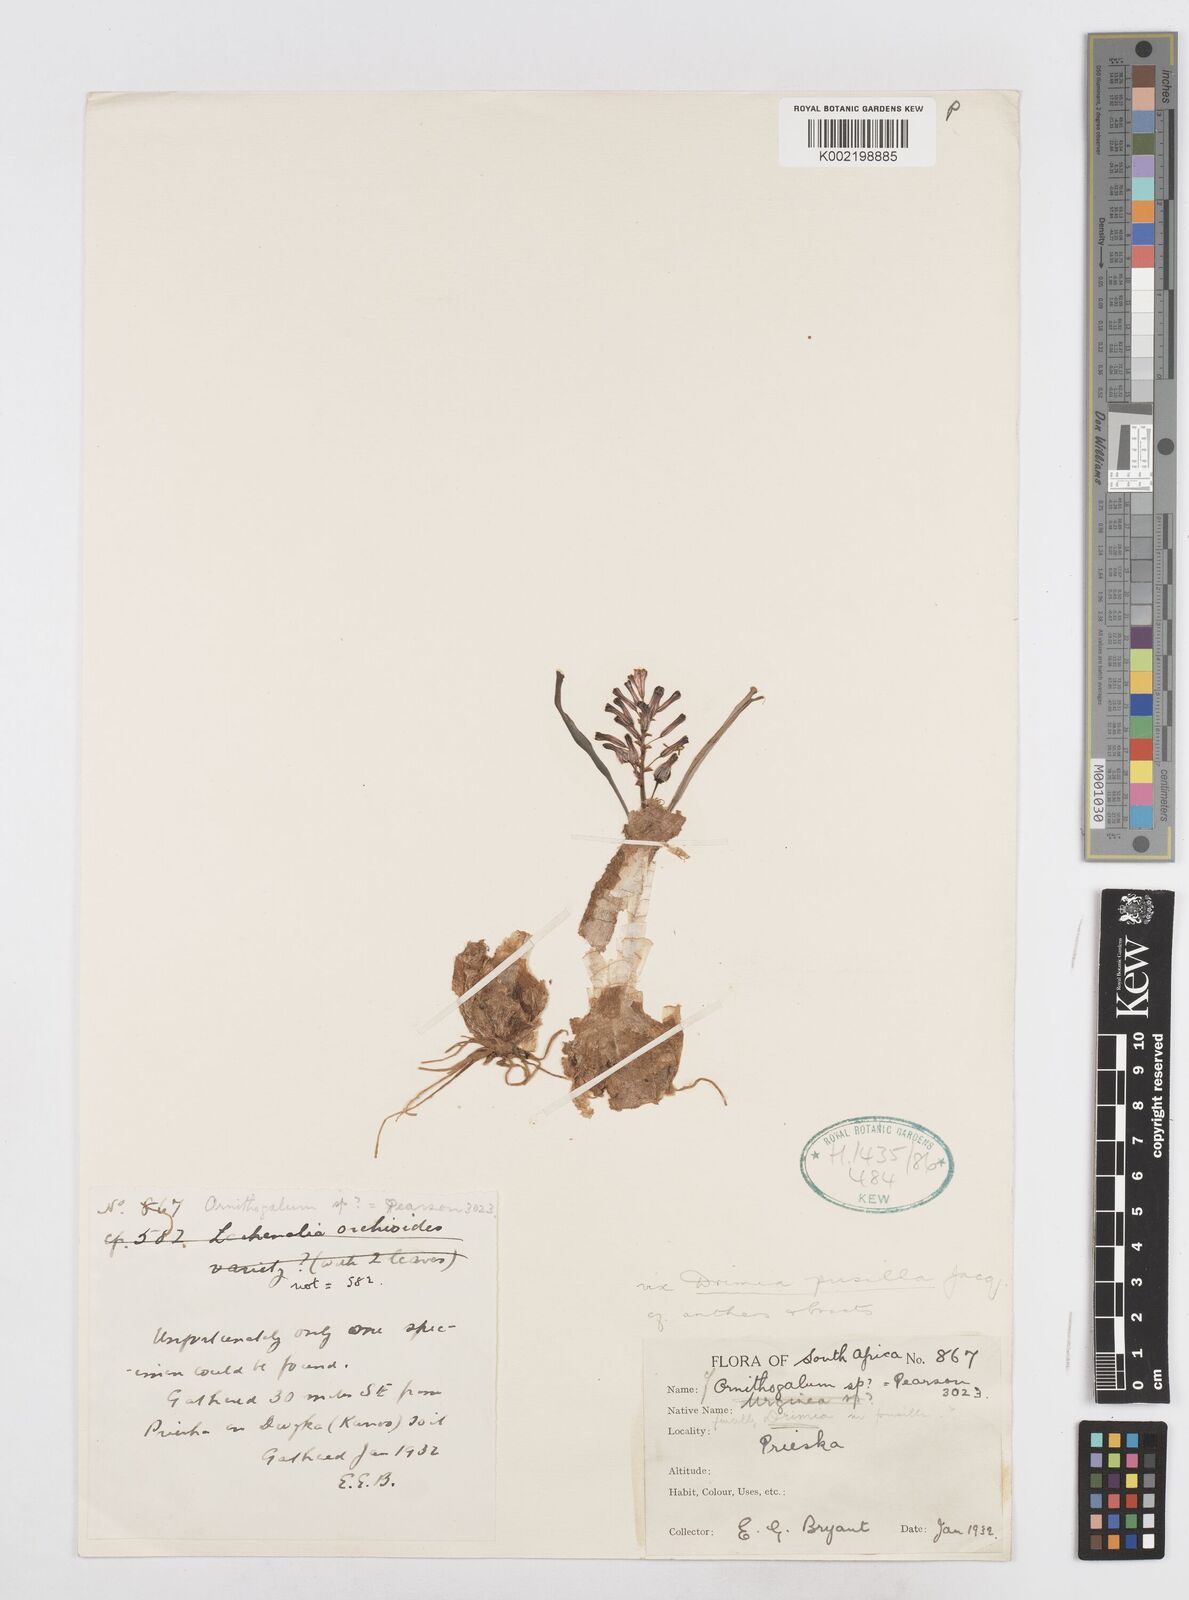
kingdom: Plantae
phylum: Tracheophyta
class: Liliopsida
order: Asparagales
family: Asparagaceae
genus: Drimia
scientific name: Drimia elata
